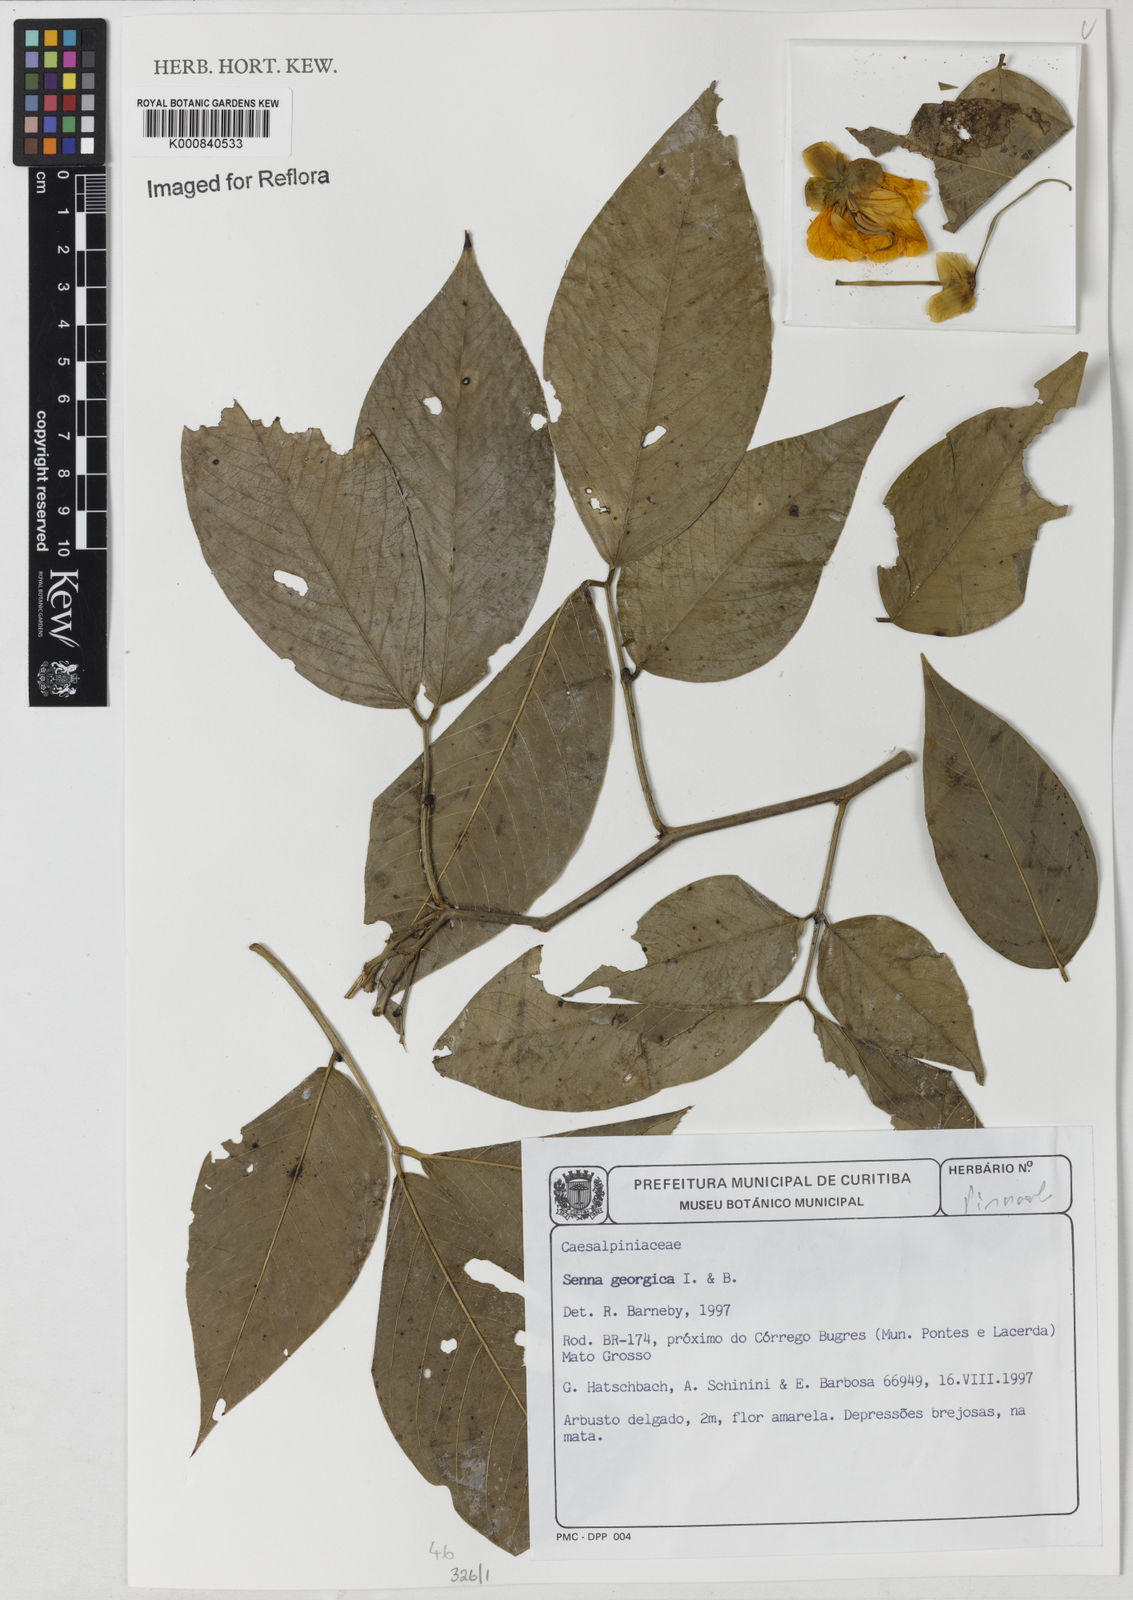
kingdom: Plantae
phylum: Tracheophyta
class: Magnoliopsida
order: Fabales
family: Fabaceae
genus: Senna
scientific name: Senna georgica
